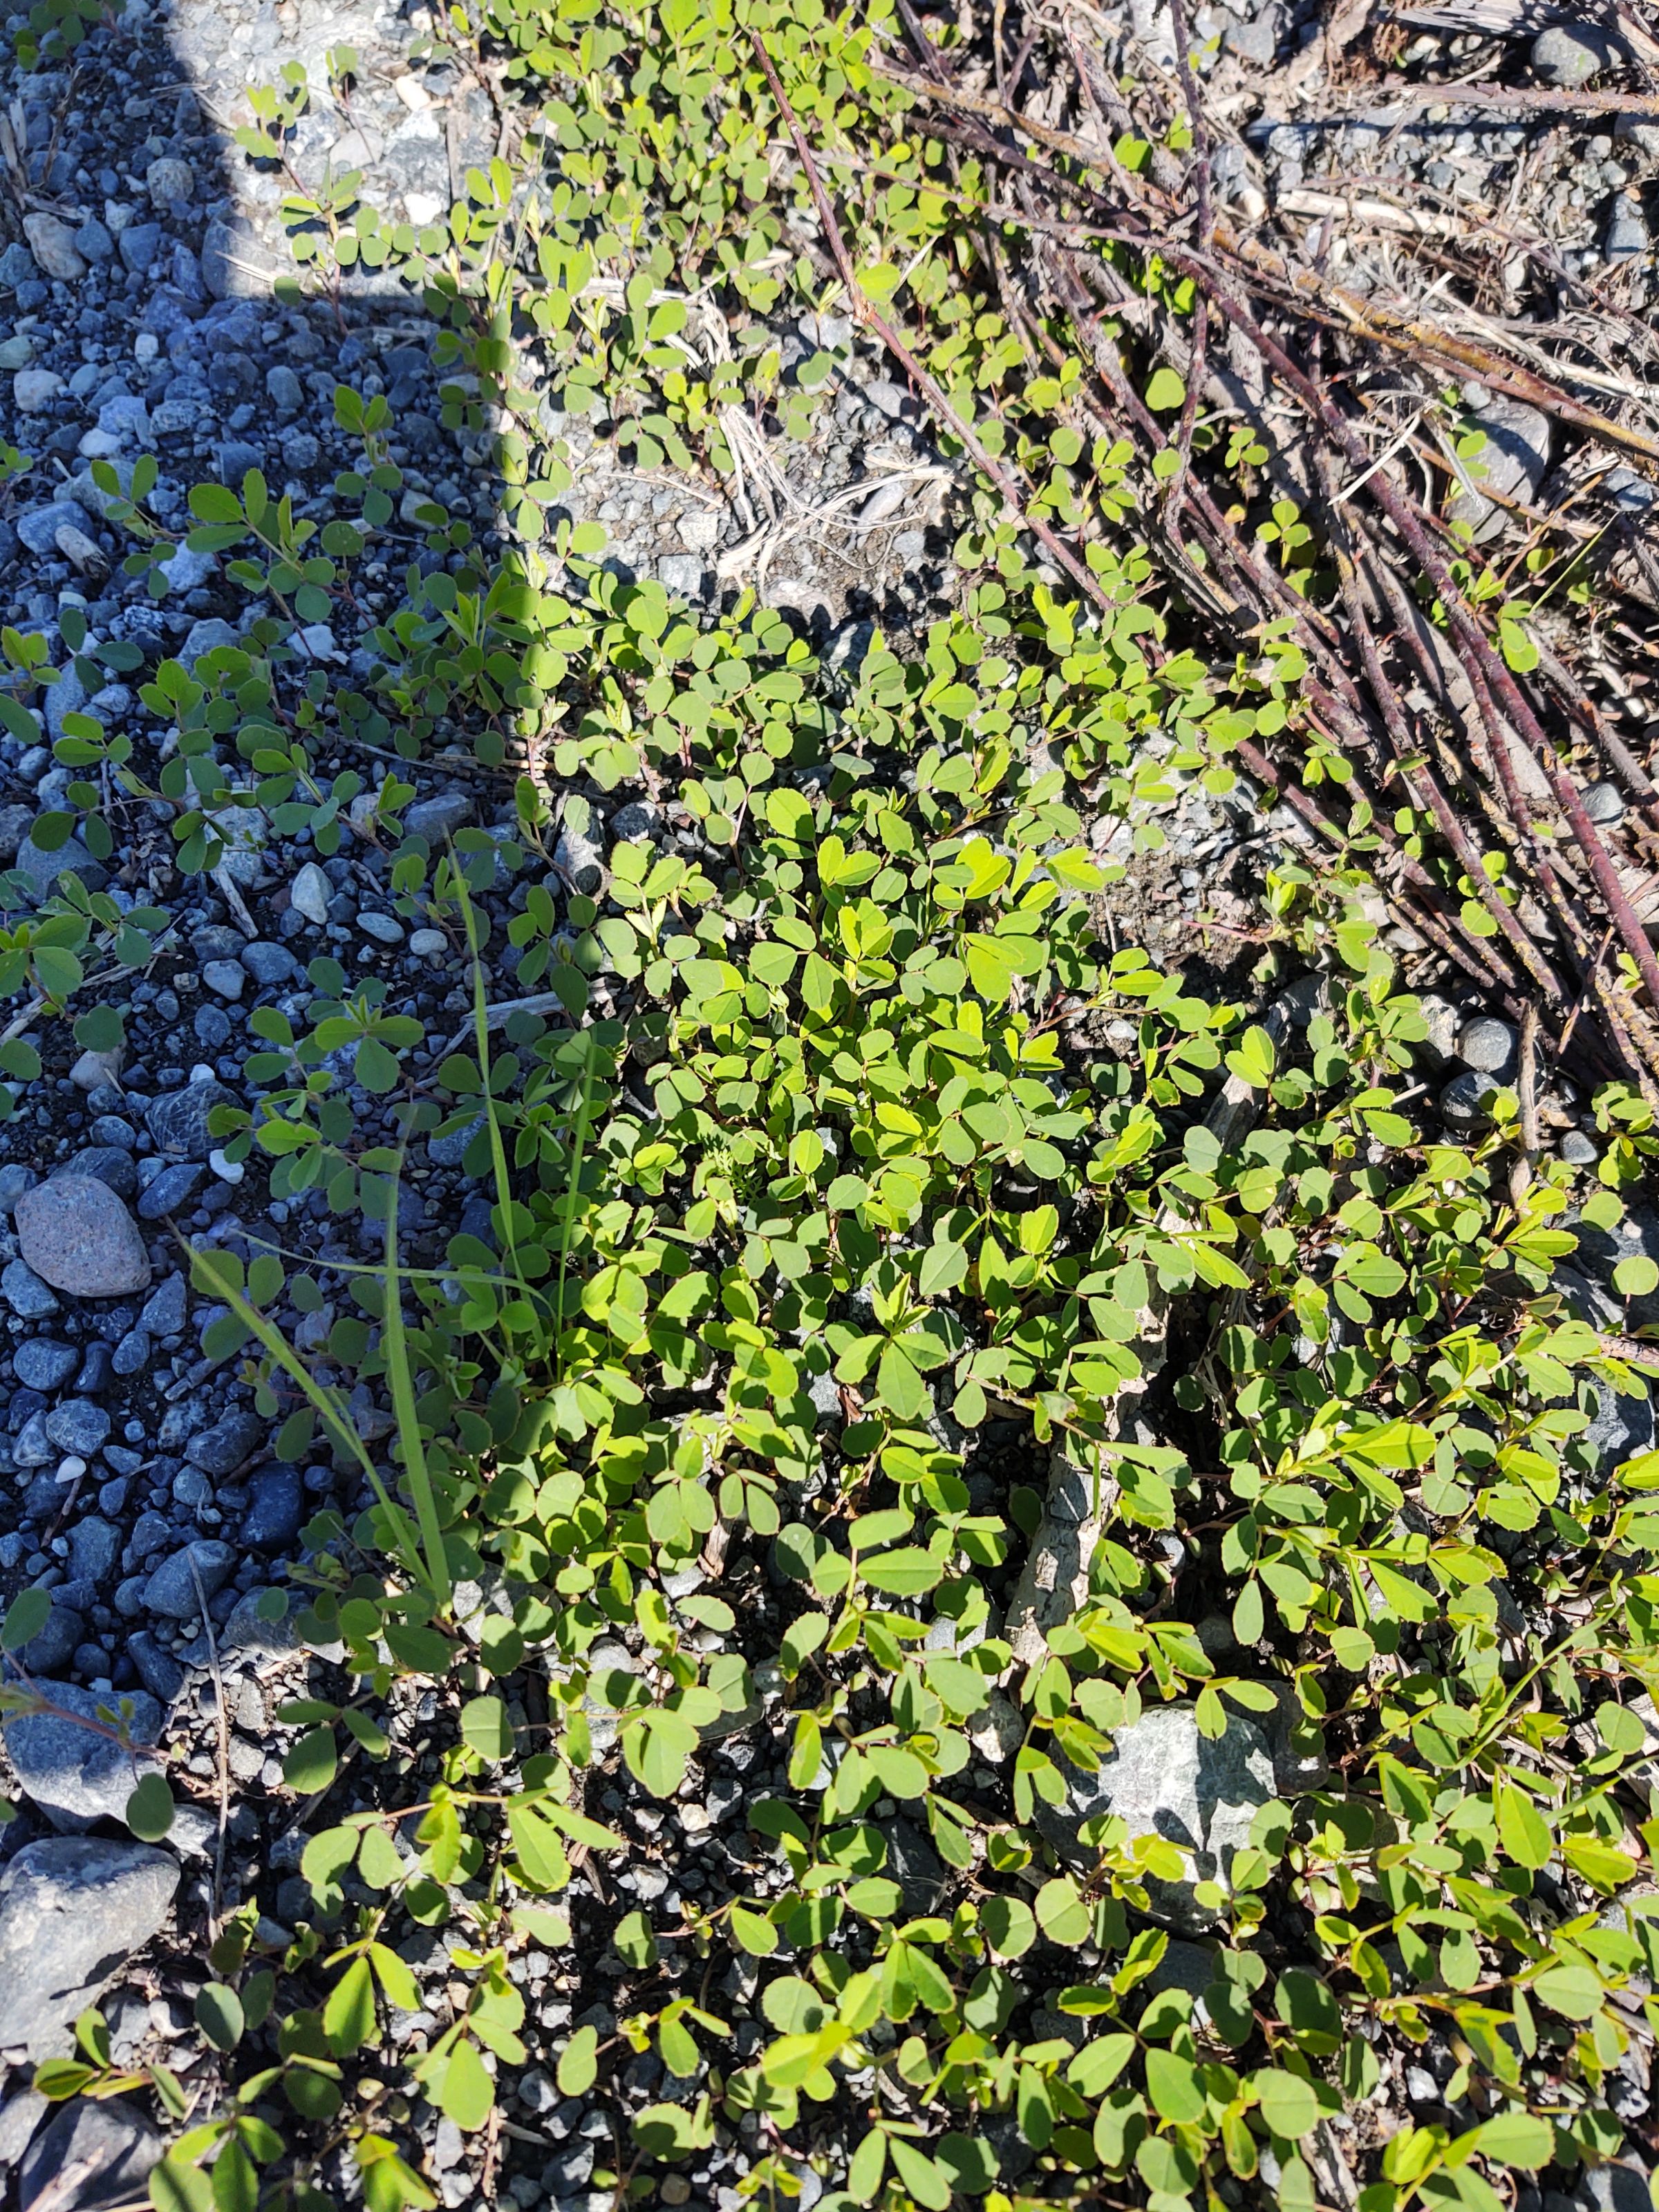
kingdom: Plantae
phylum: Tracheophyta
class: Magnoliopsida
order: Fabales
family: Fabaceae
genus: Melilotus
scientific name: Melilotus albus
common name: White sweetclover
